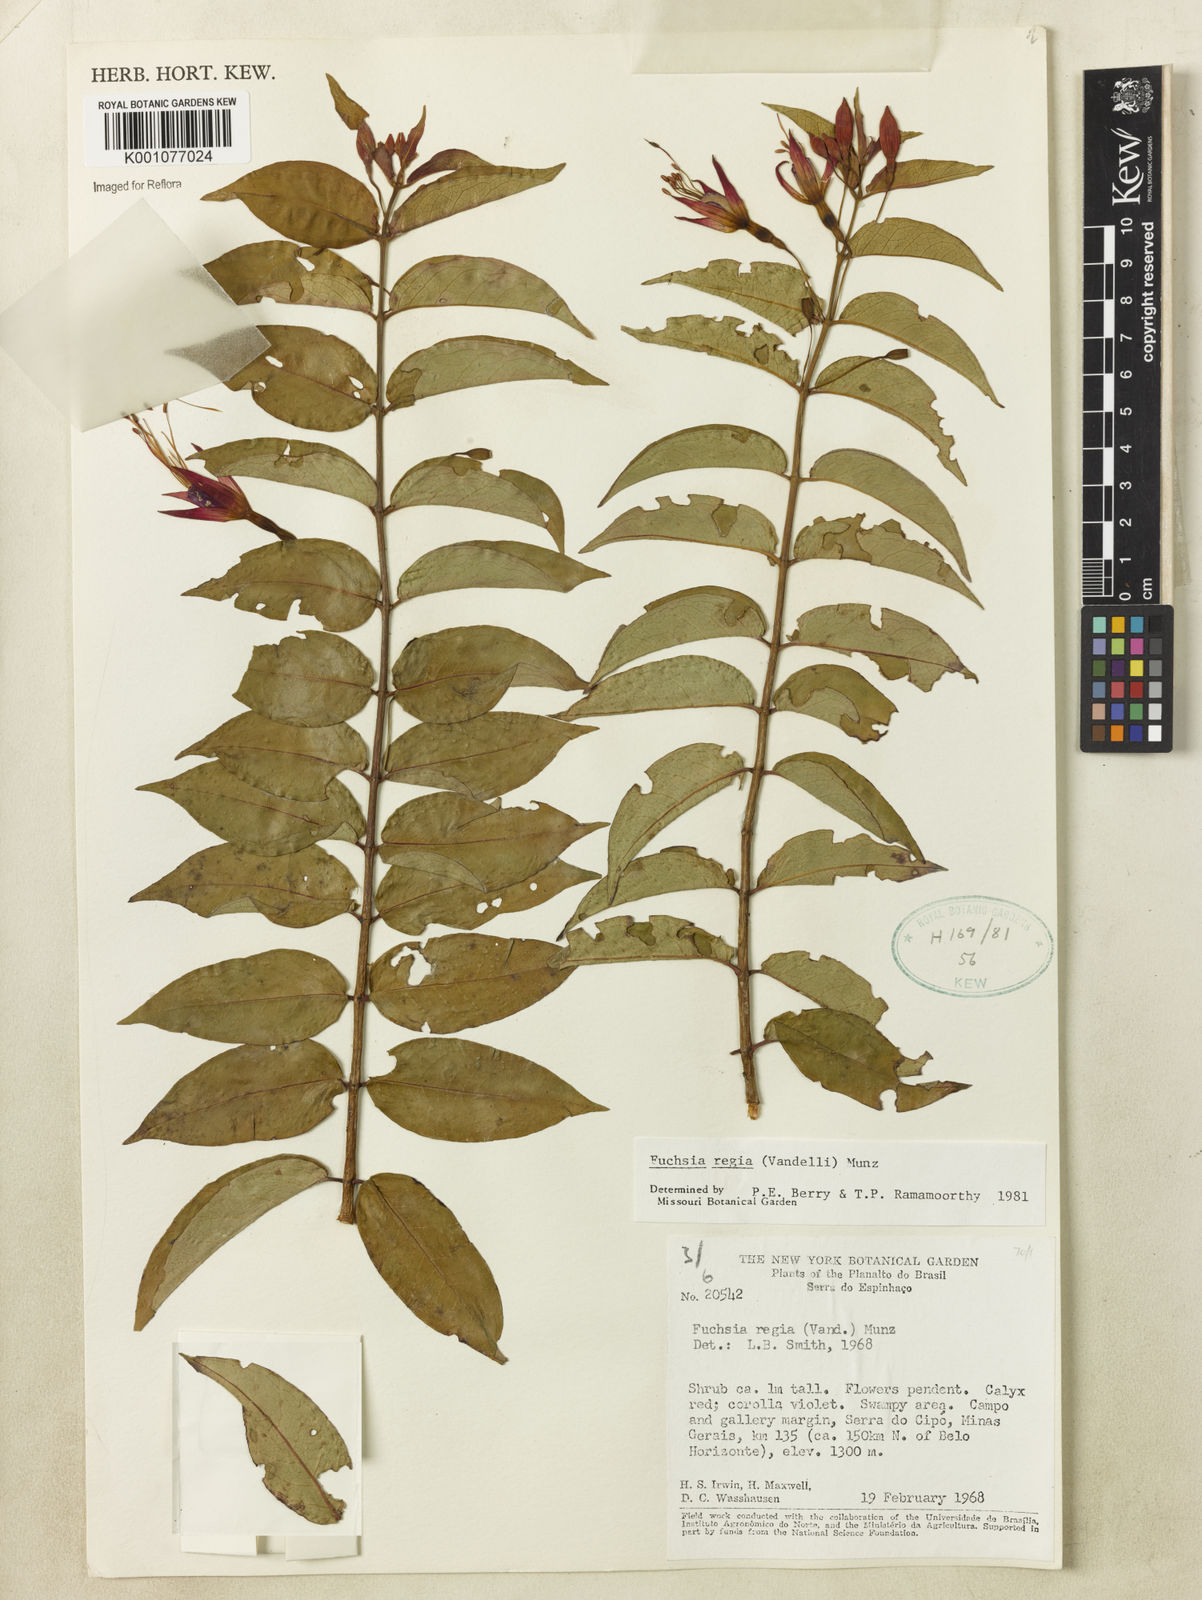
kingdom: Plantae
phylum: Tracheophyta
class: Magnoliopsida
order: Myrtales
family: Onagraceae
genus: Fuchsia
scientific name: Fuchsia regia
